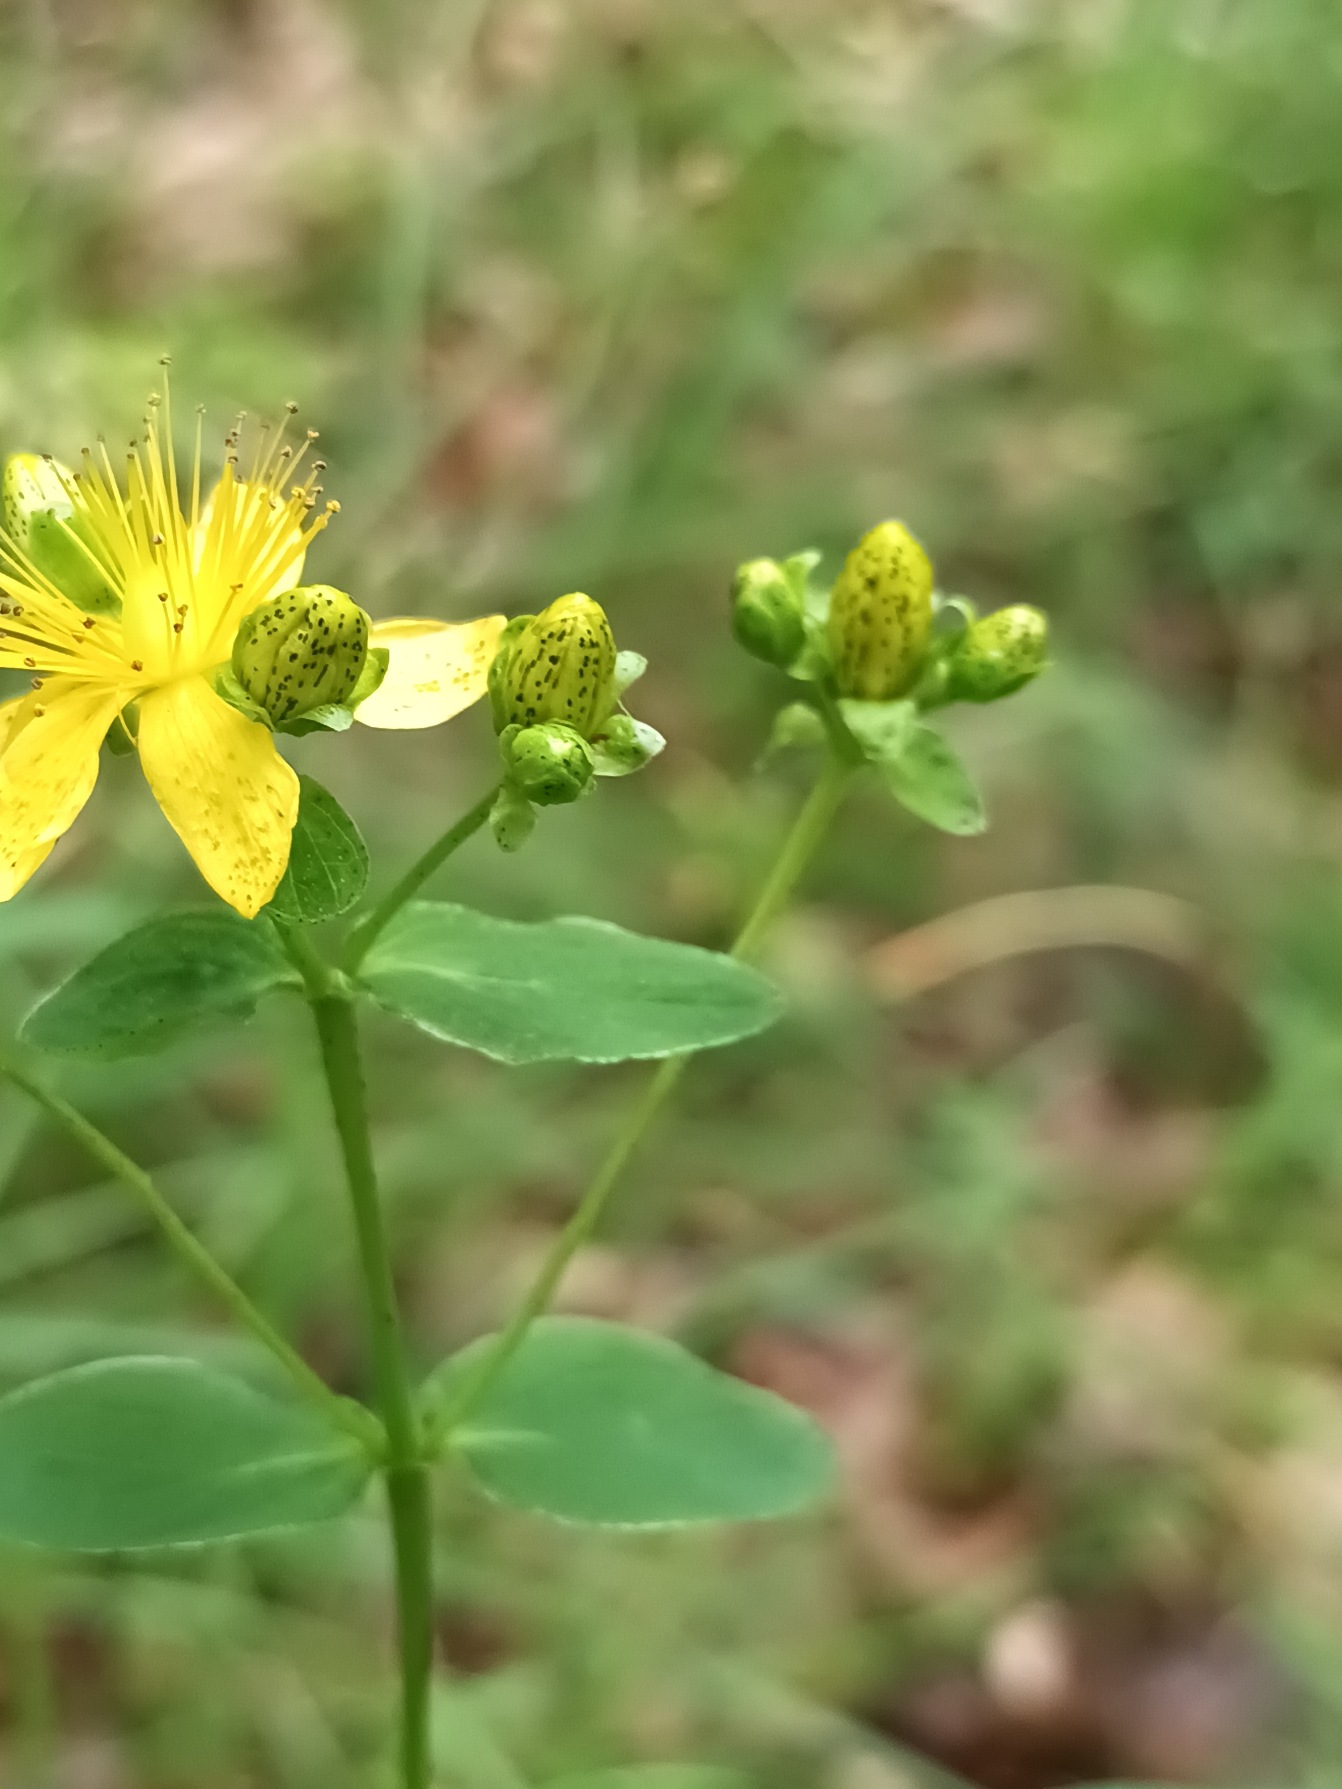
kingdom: Plantae
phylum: Tracheophyta
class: Magnoliopsida
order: Malpighiales
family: Hypericaceae
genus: Hypericum
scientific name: Hypericum maculatum
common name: Kantet perikon
